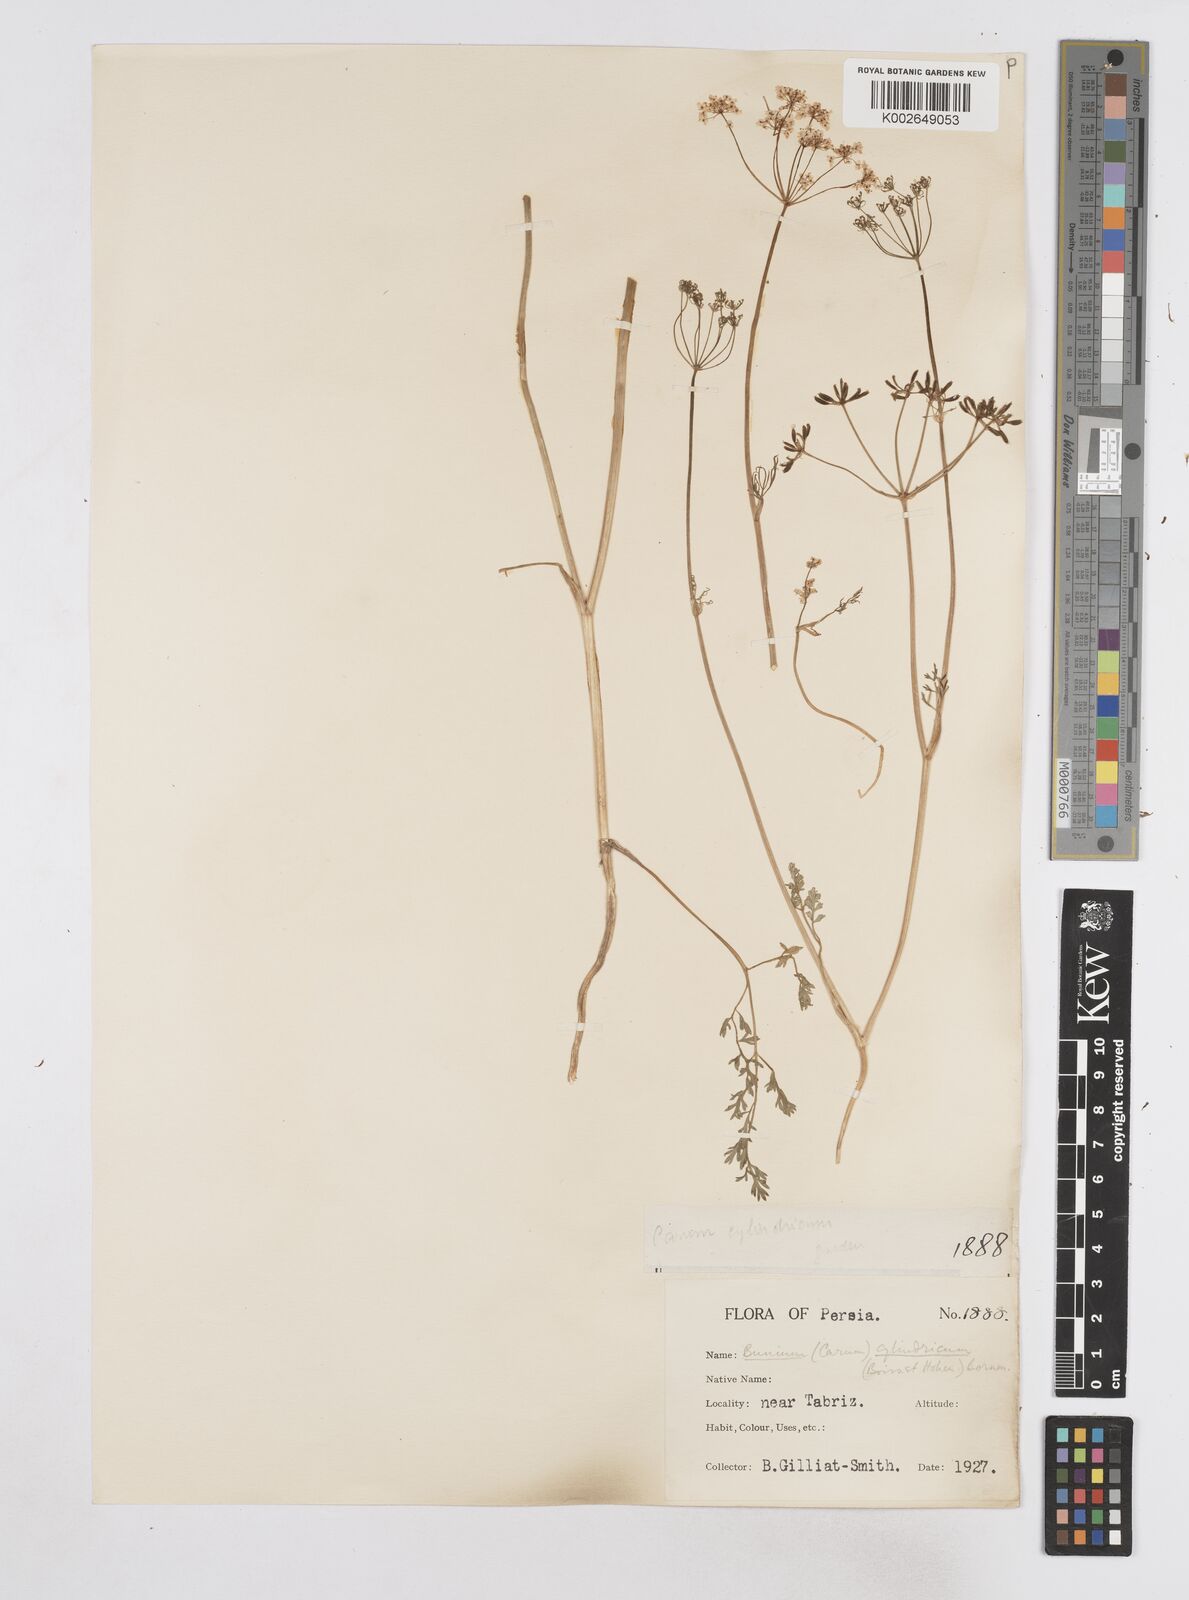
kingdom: Plantae
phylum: Tracheophyta
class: Magnoliopsida
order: Apiales
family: Apiaceae
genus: Elwendia
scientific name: Elwendia cylindrica
